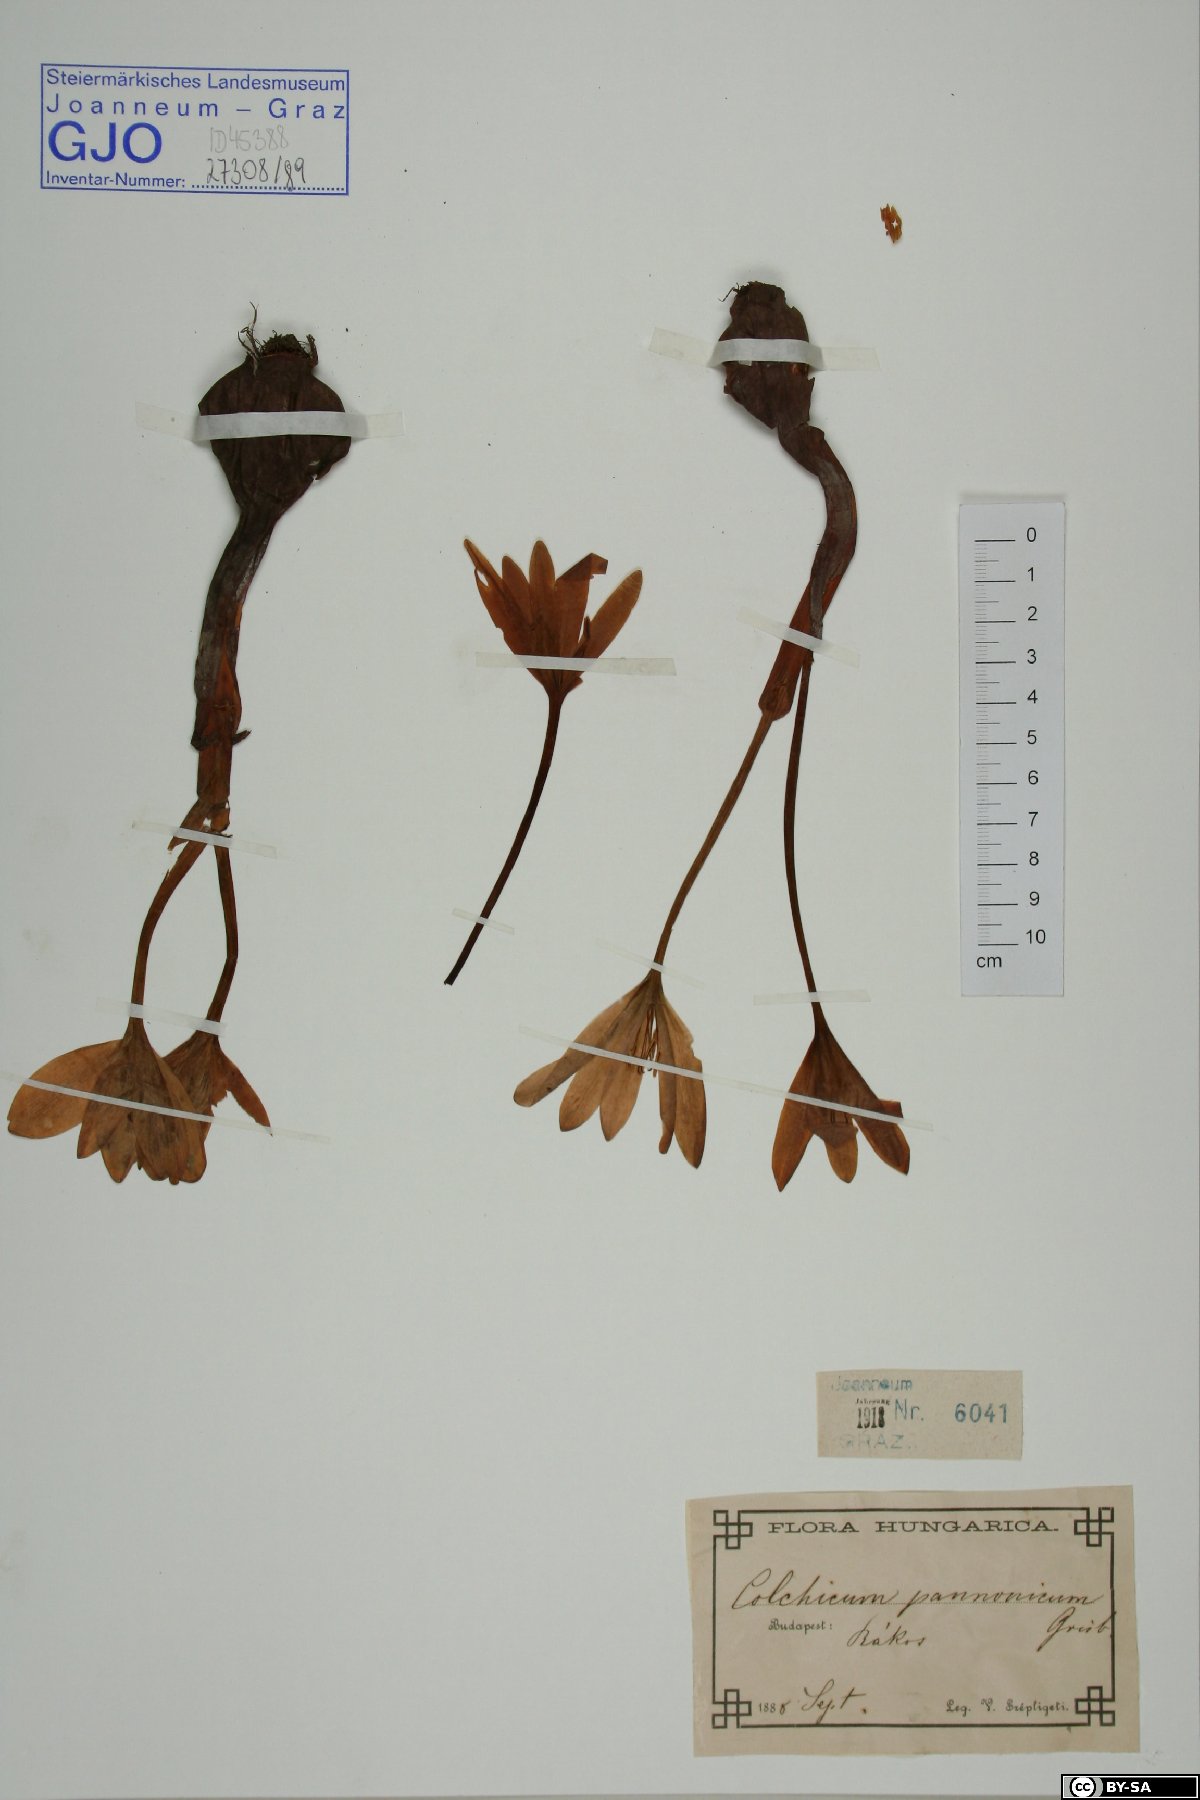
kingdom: Plantae
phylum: Tracheophyta
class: Liliopsida
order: Liliales
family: Colchicaceae
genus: Colchicum
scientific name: Colchicum autumnale
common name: Autumn crocus
